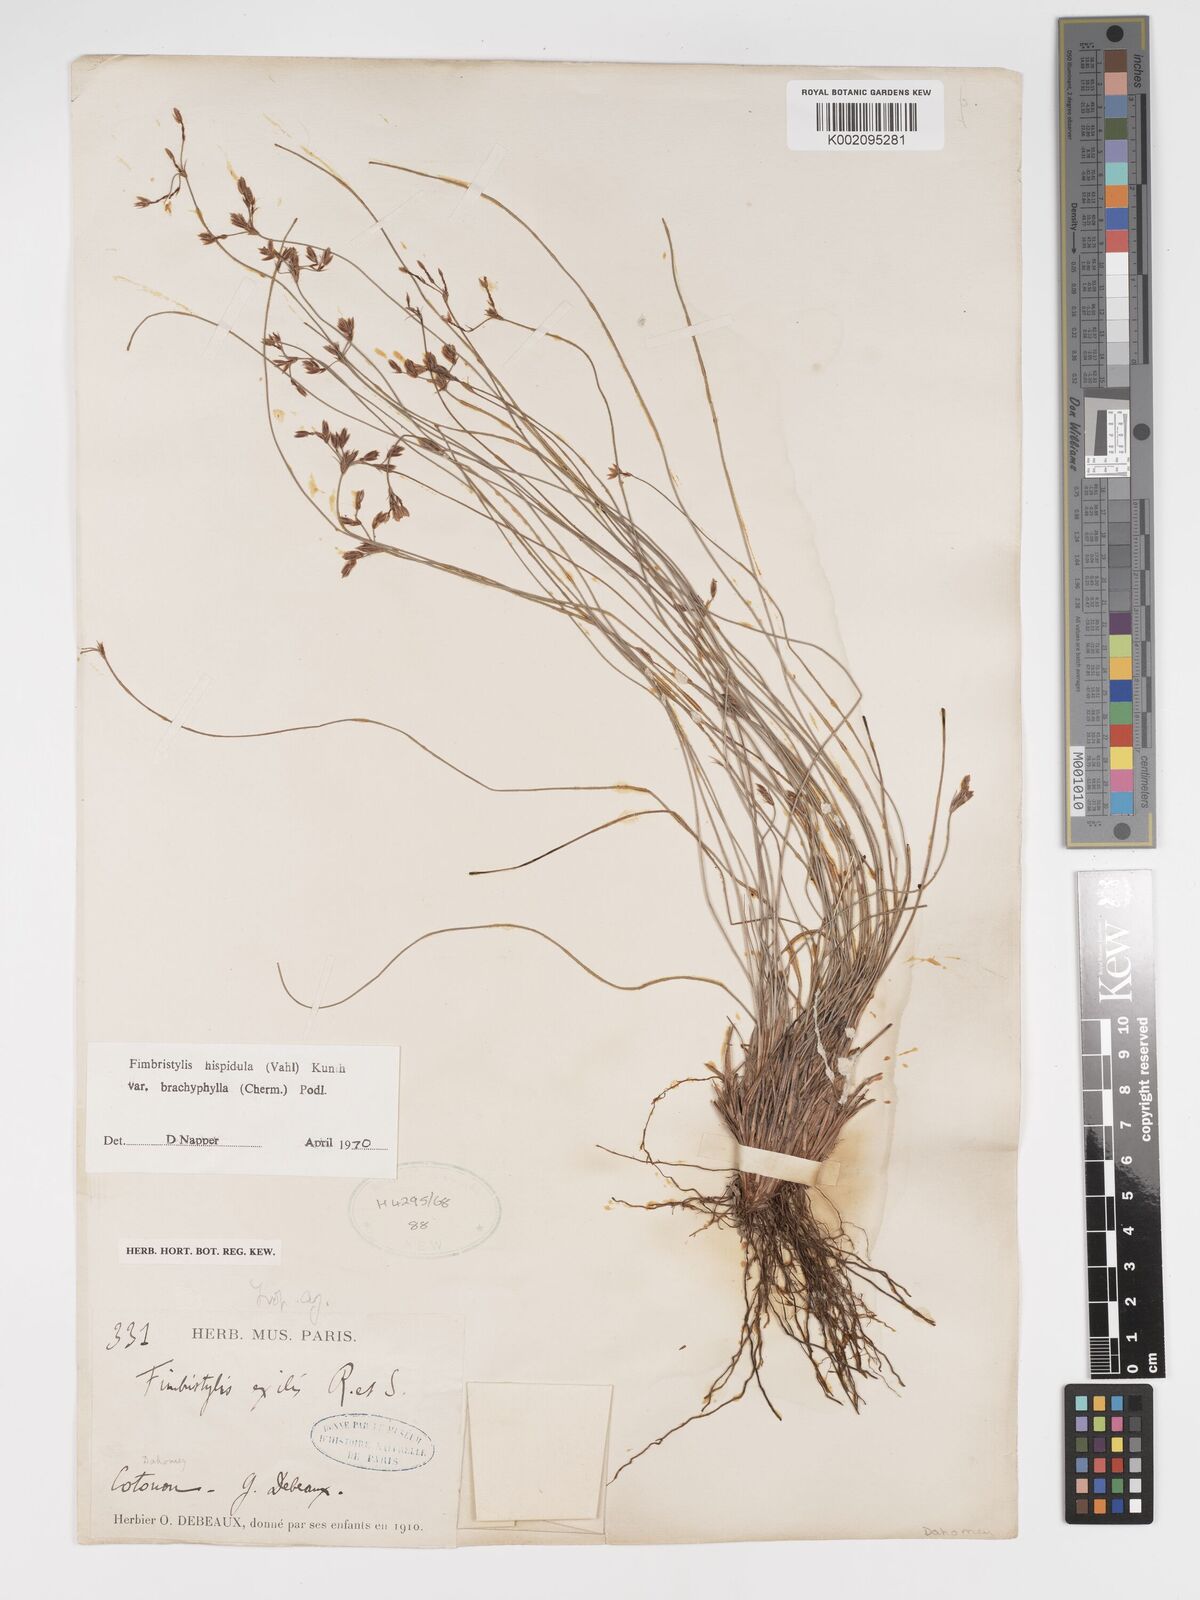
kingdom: Plantae
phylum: Tracheophyta
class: Liliopsida
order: Poales
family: Cyperaceae
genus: Bulbostylis
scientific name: Bulbostylis hispidula
